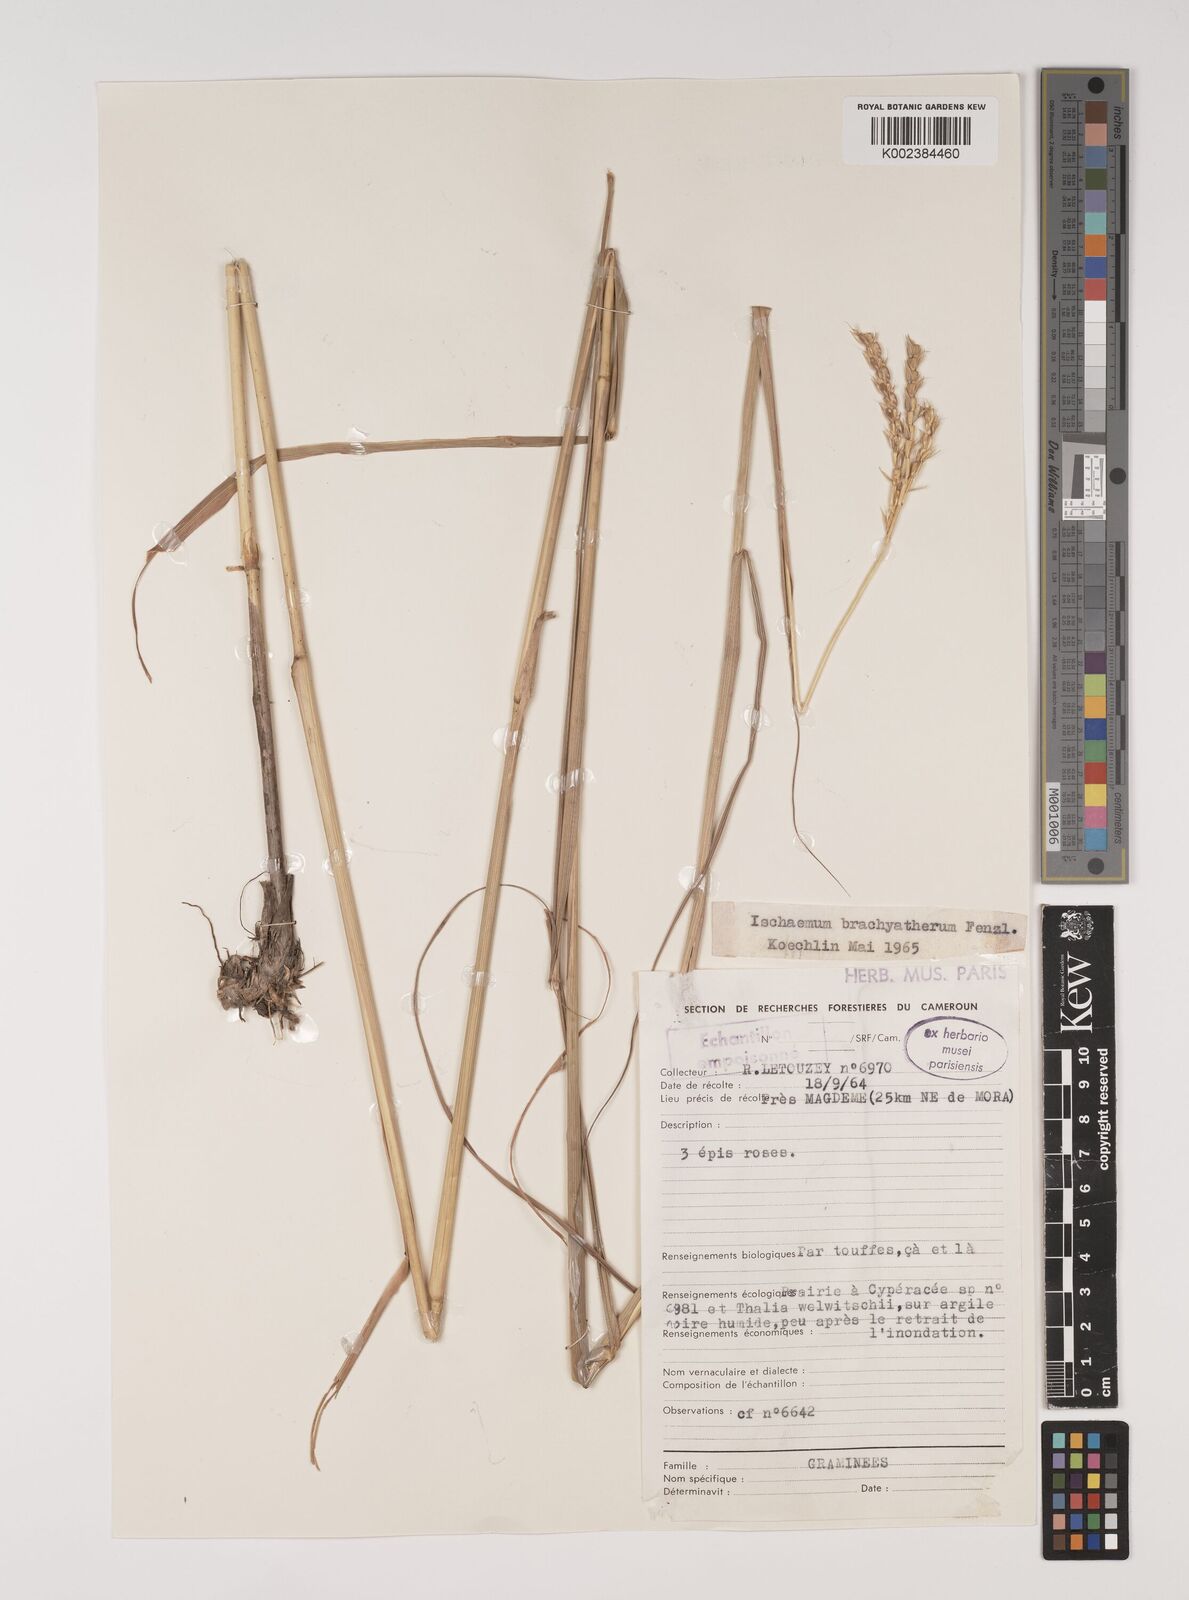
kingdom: Plantae
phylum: Tracheophyta
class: Liliopsida
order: Poales
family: Poaceae
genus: Ischaemum
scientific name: Ischaemum afrum
